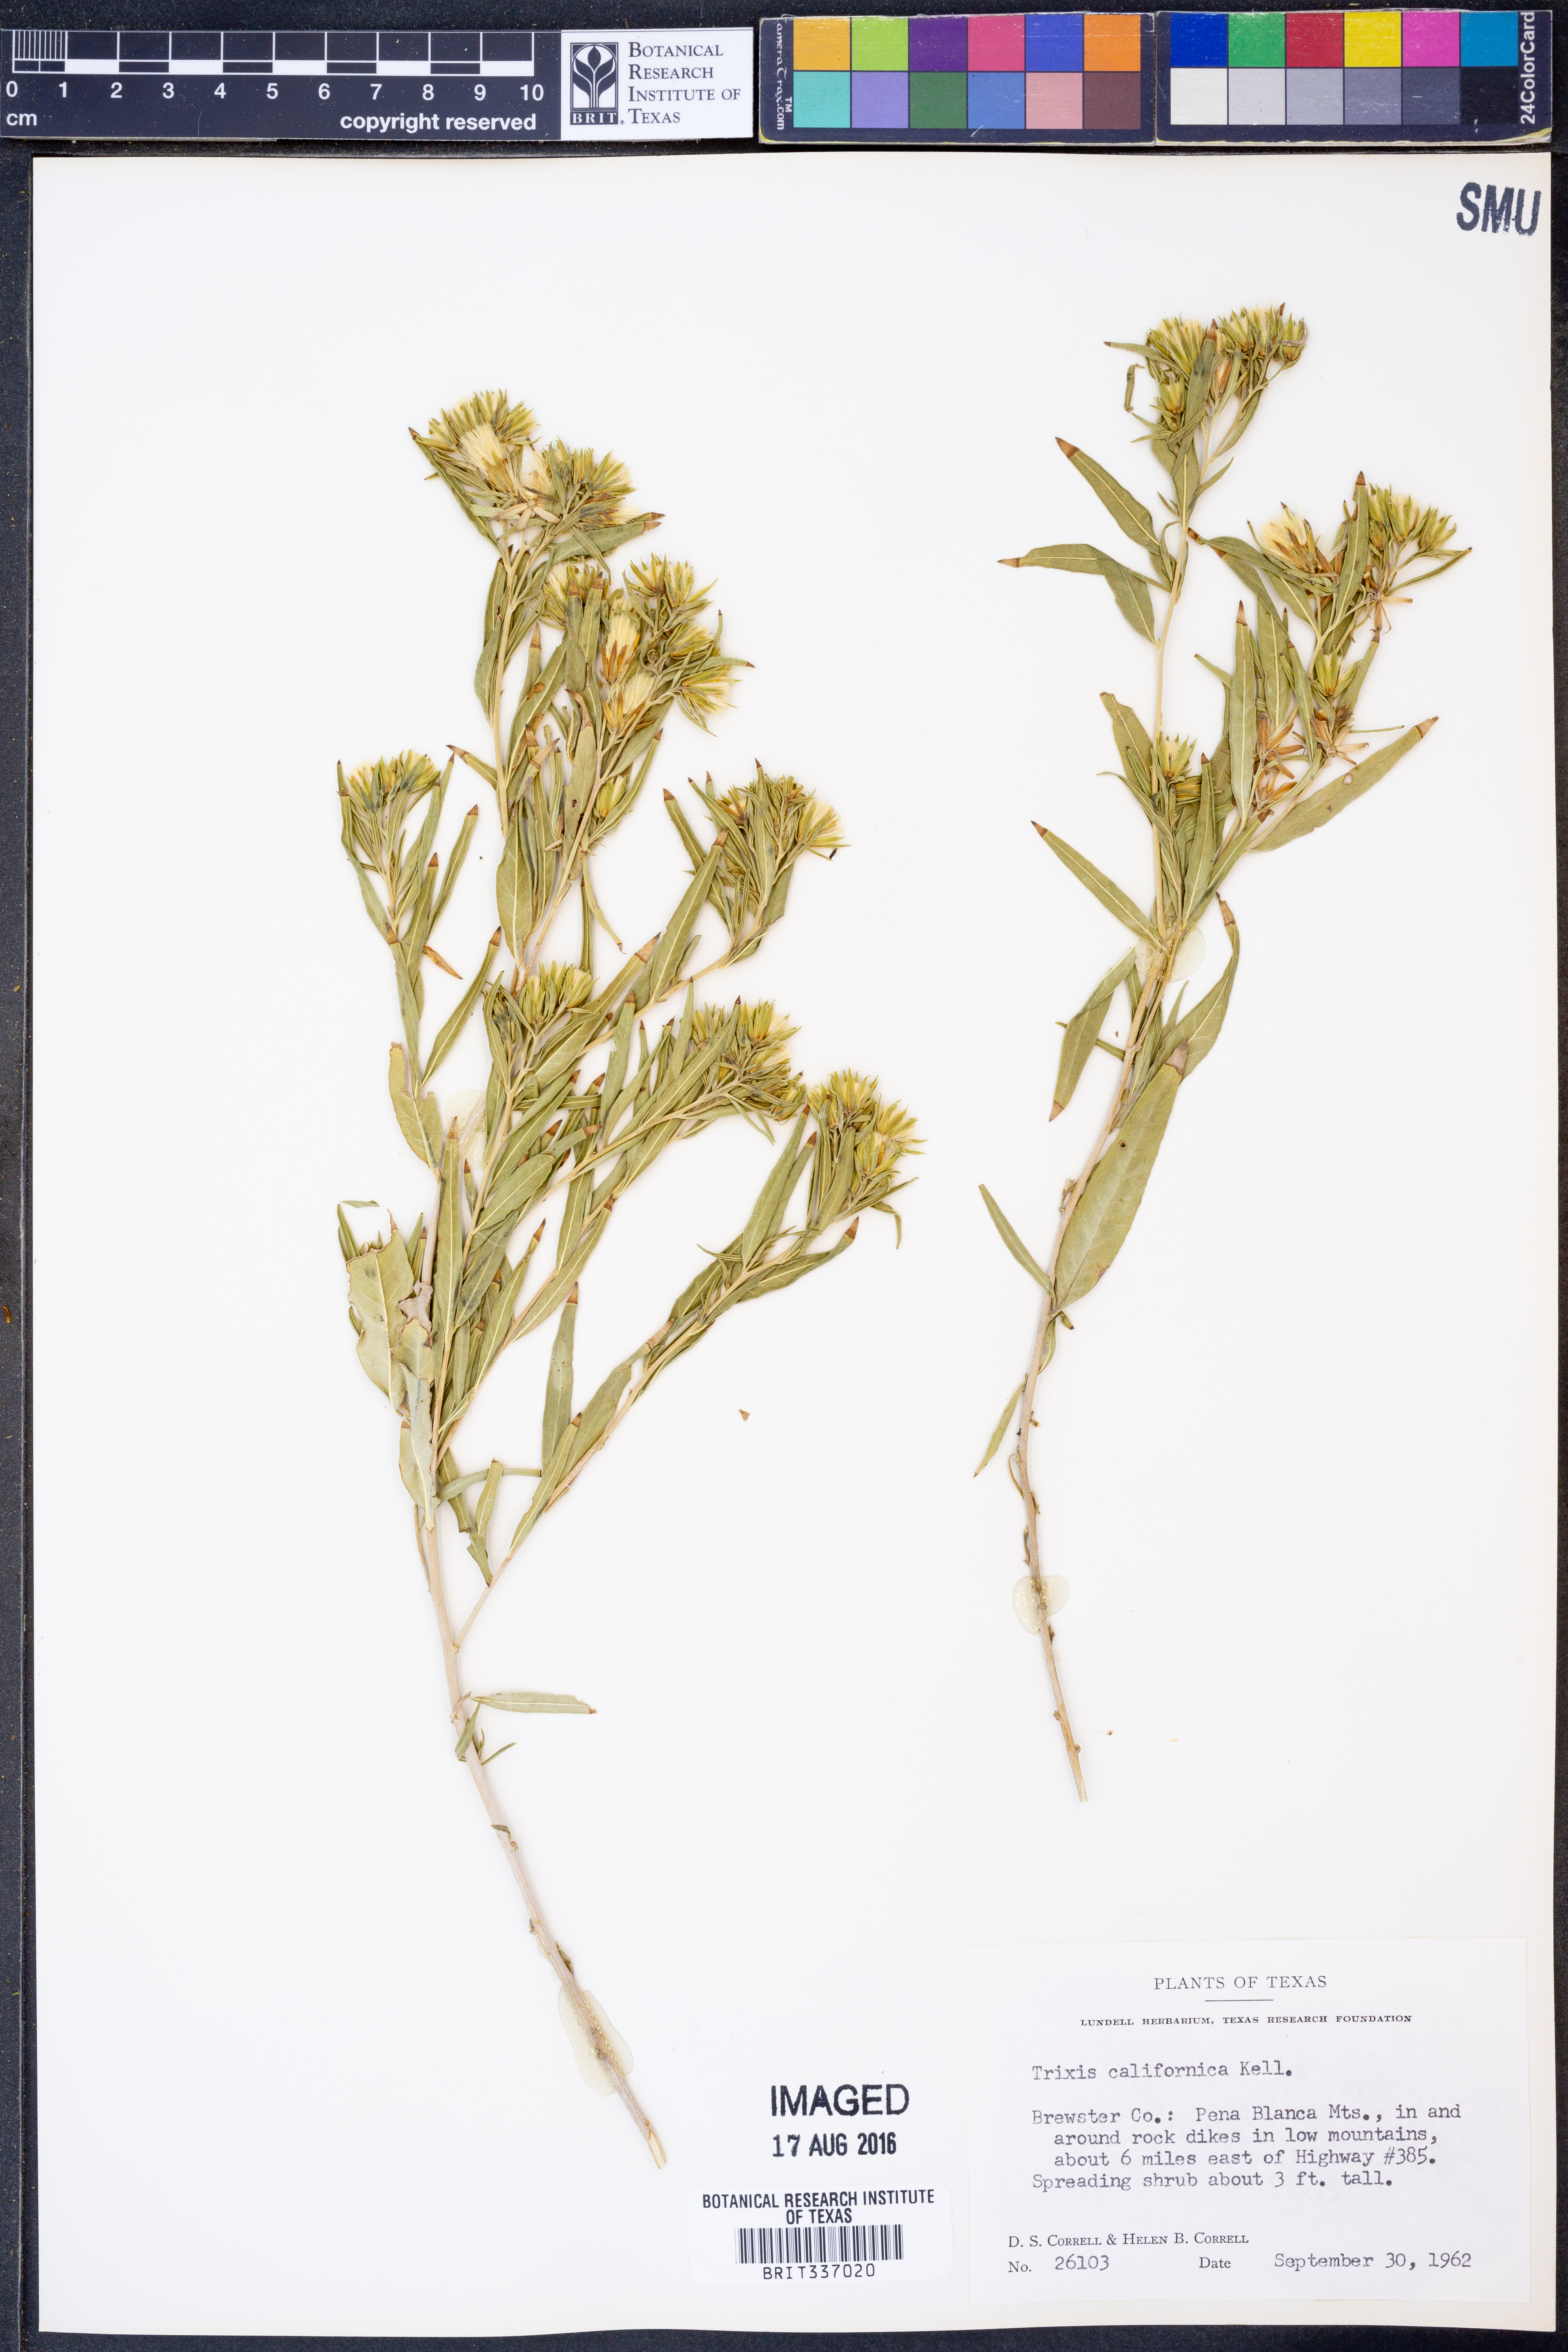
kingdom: Plantae
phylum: Tracheophyta
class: Magnoliopsida
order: Asterales
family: Asteraceae
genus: Trixis
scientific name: Trixis californica
